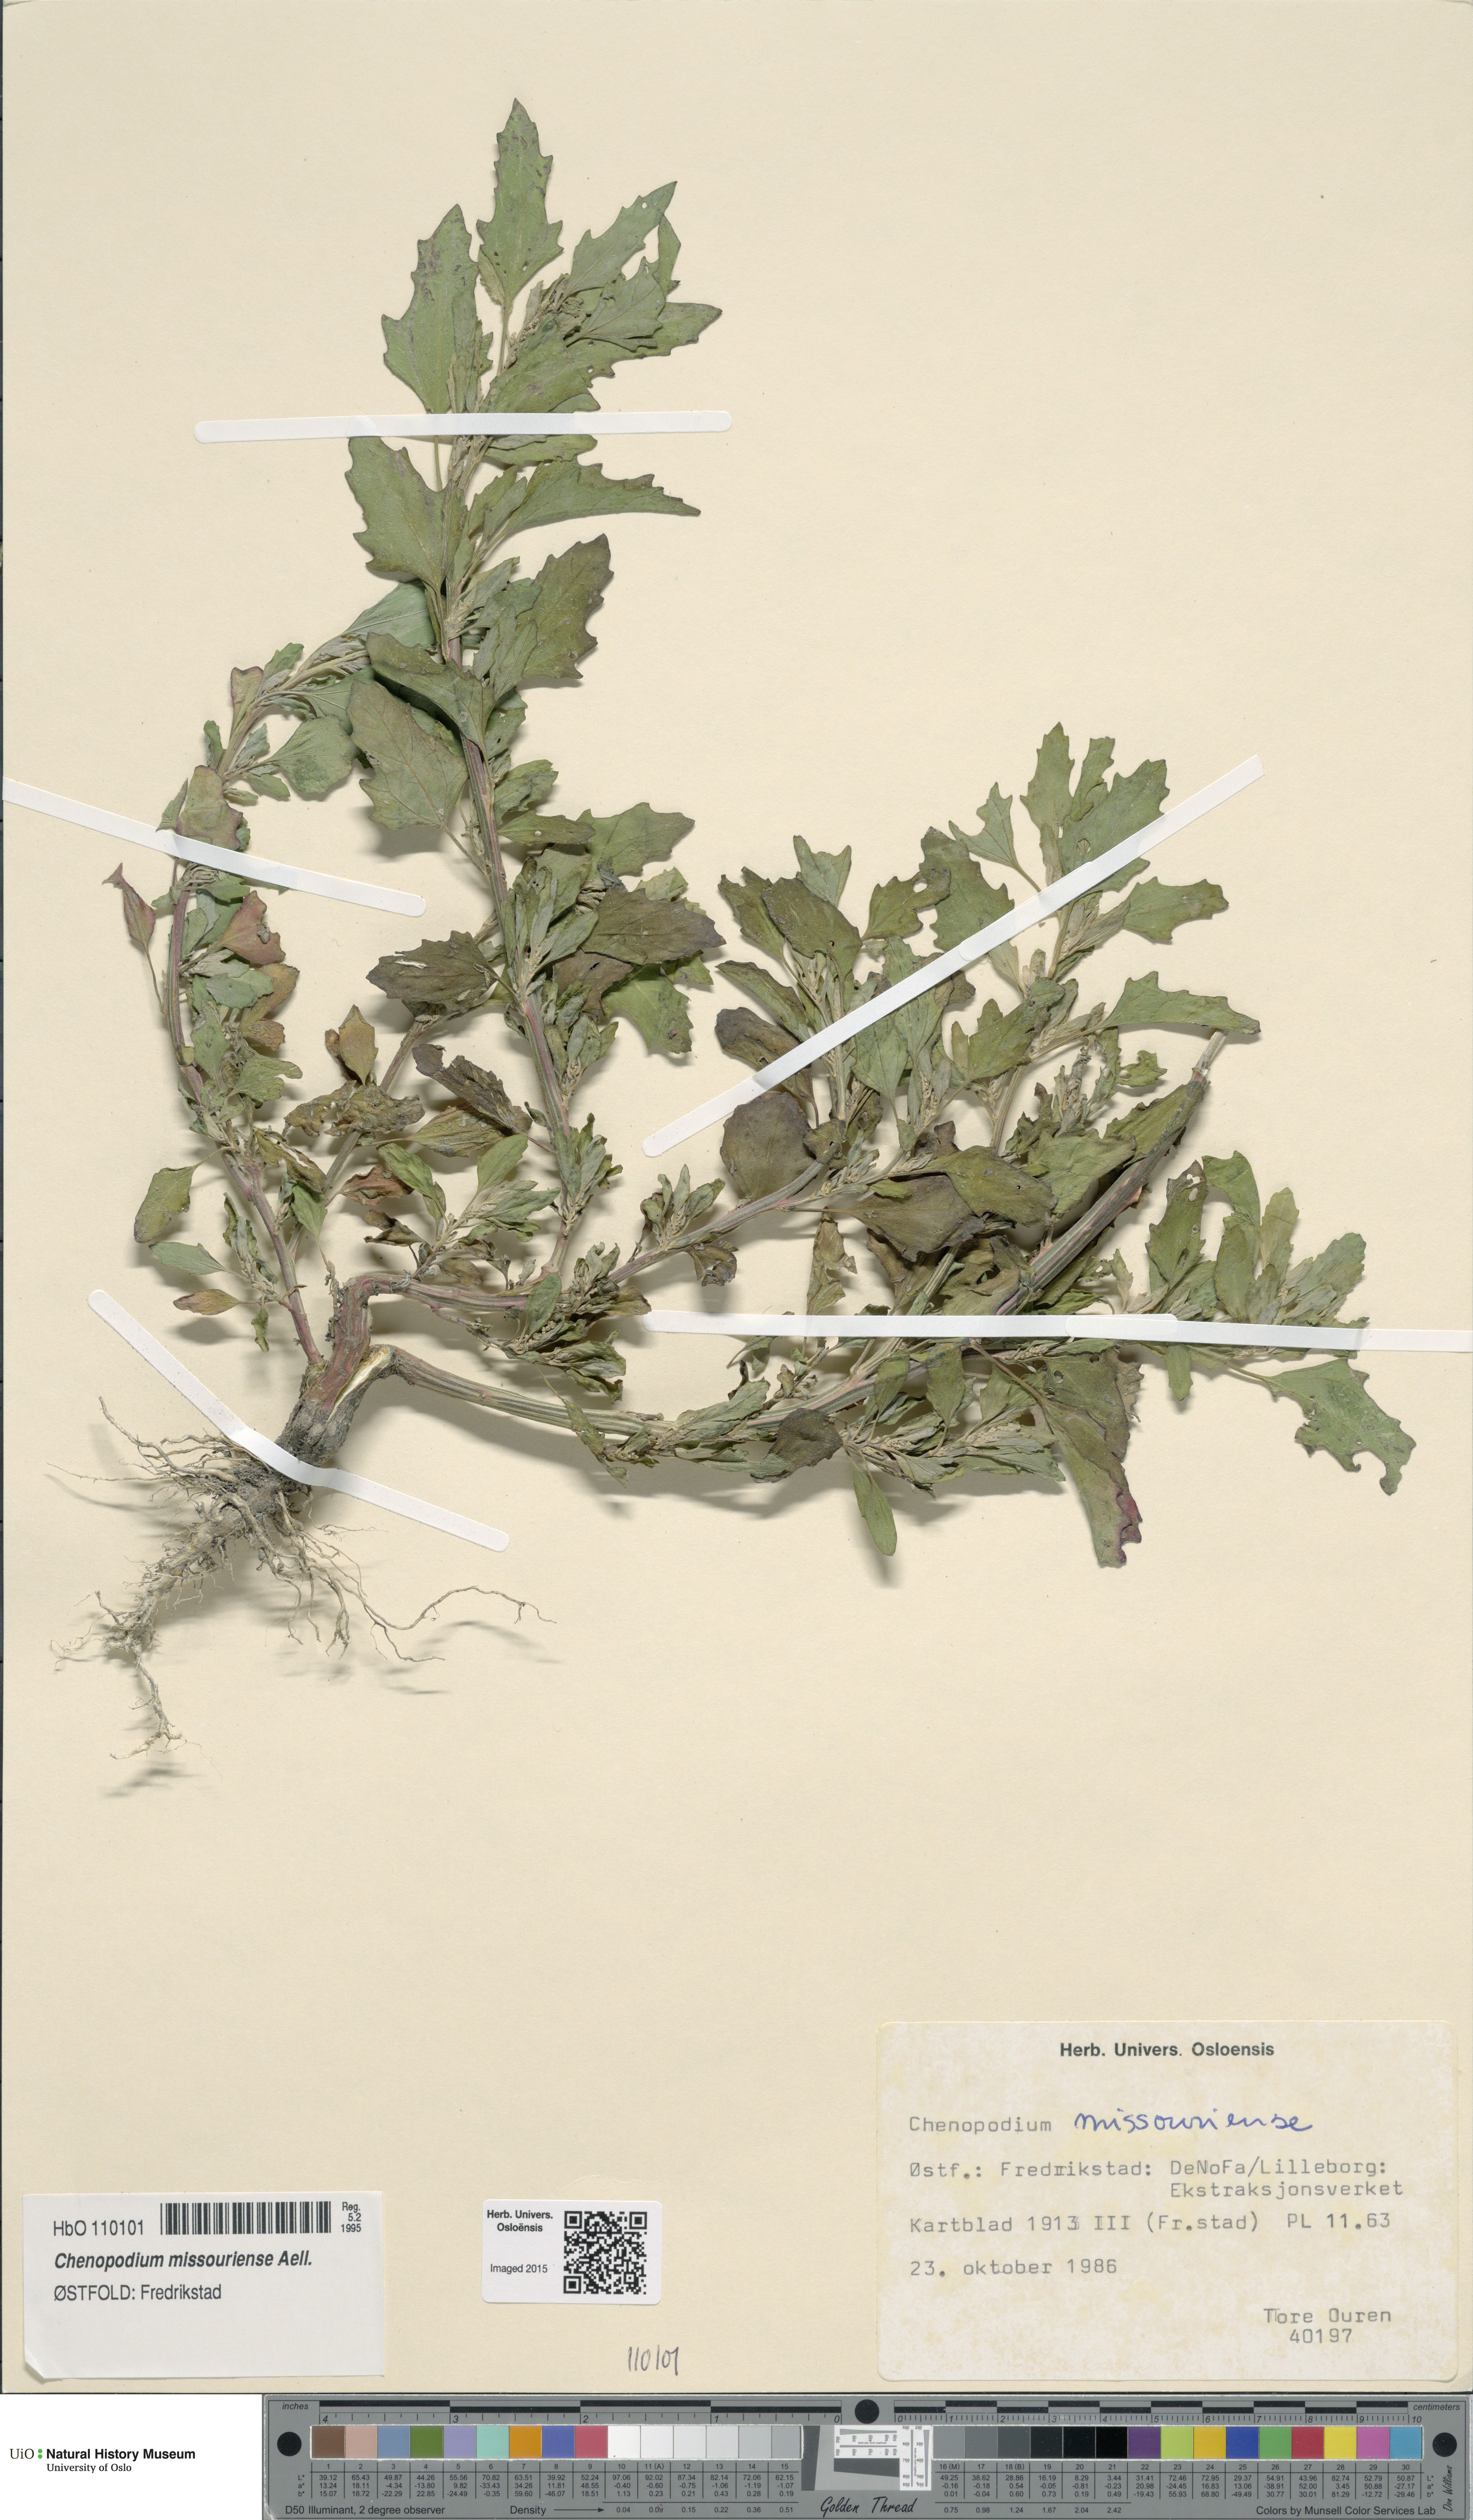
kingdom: Plantae
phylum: Tracheophyta
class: Magnoliopsida
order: Caryophyllales
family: Amaranthaceae
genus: Chenopodium
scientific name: Chenopodium album
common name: Fat-hen
